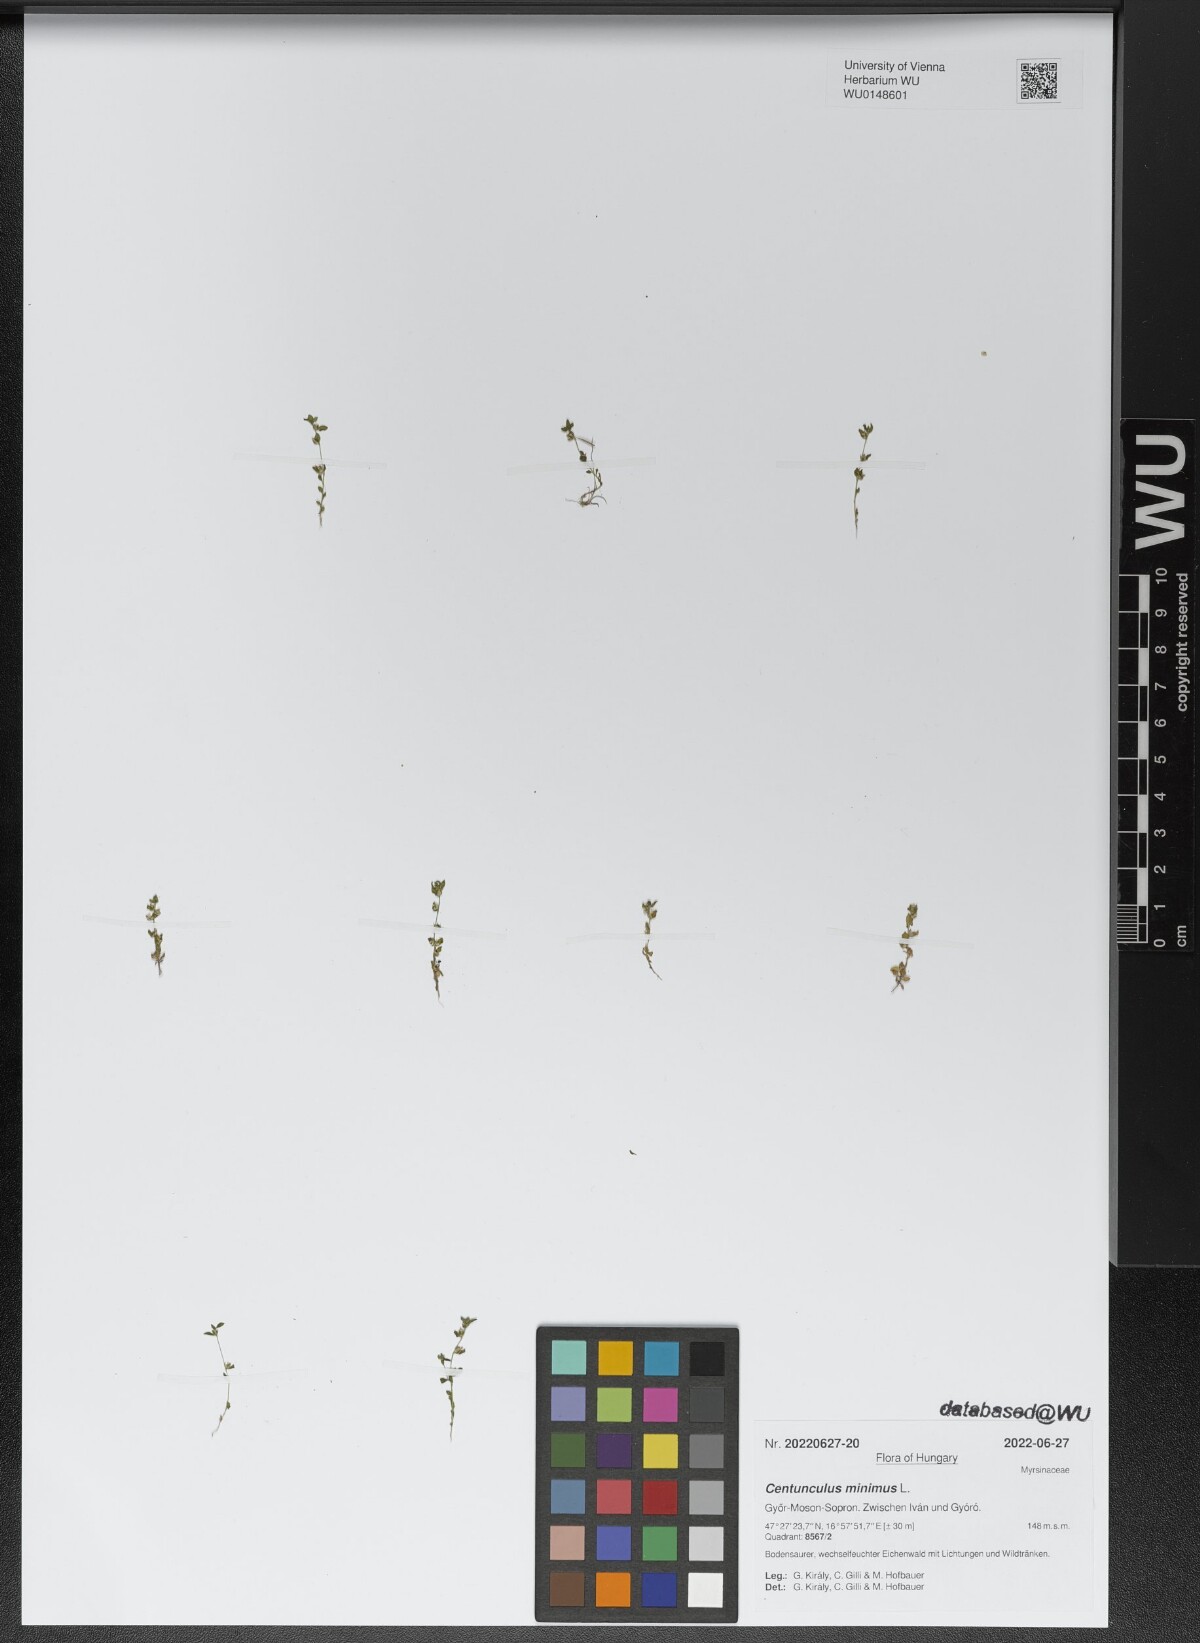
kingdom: Plantae
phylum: Tracheophyta
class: Magnoliopsida
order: Ericales
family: Primulaceae
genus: Lysimachia
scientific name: Lysimachia minima
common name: Chaffweed
